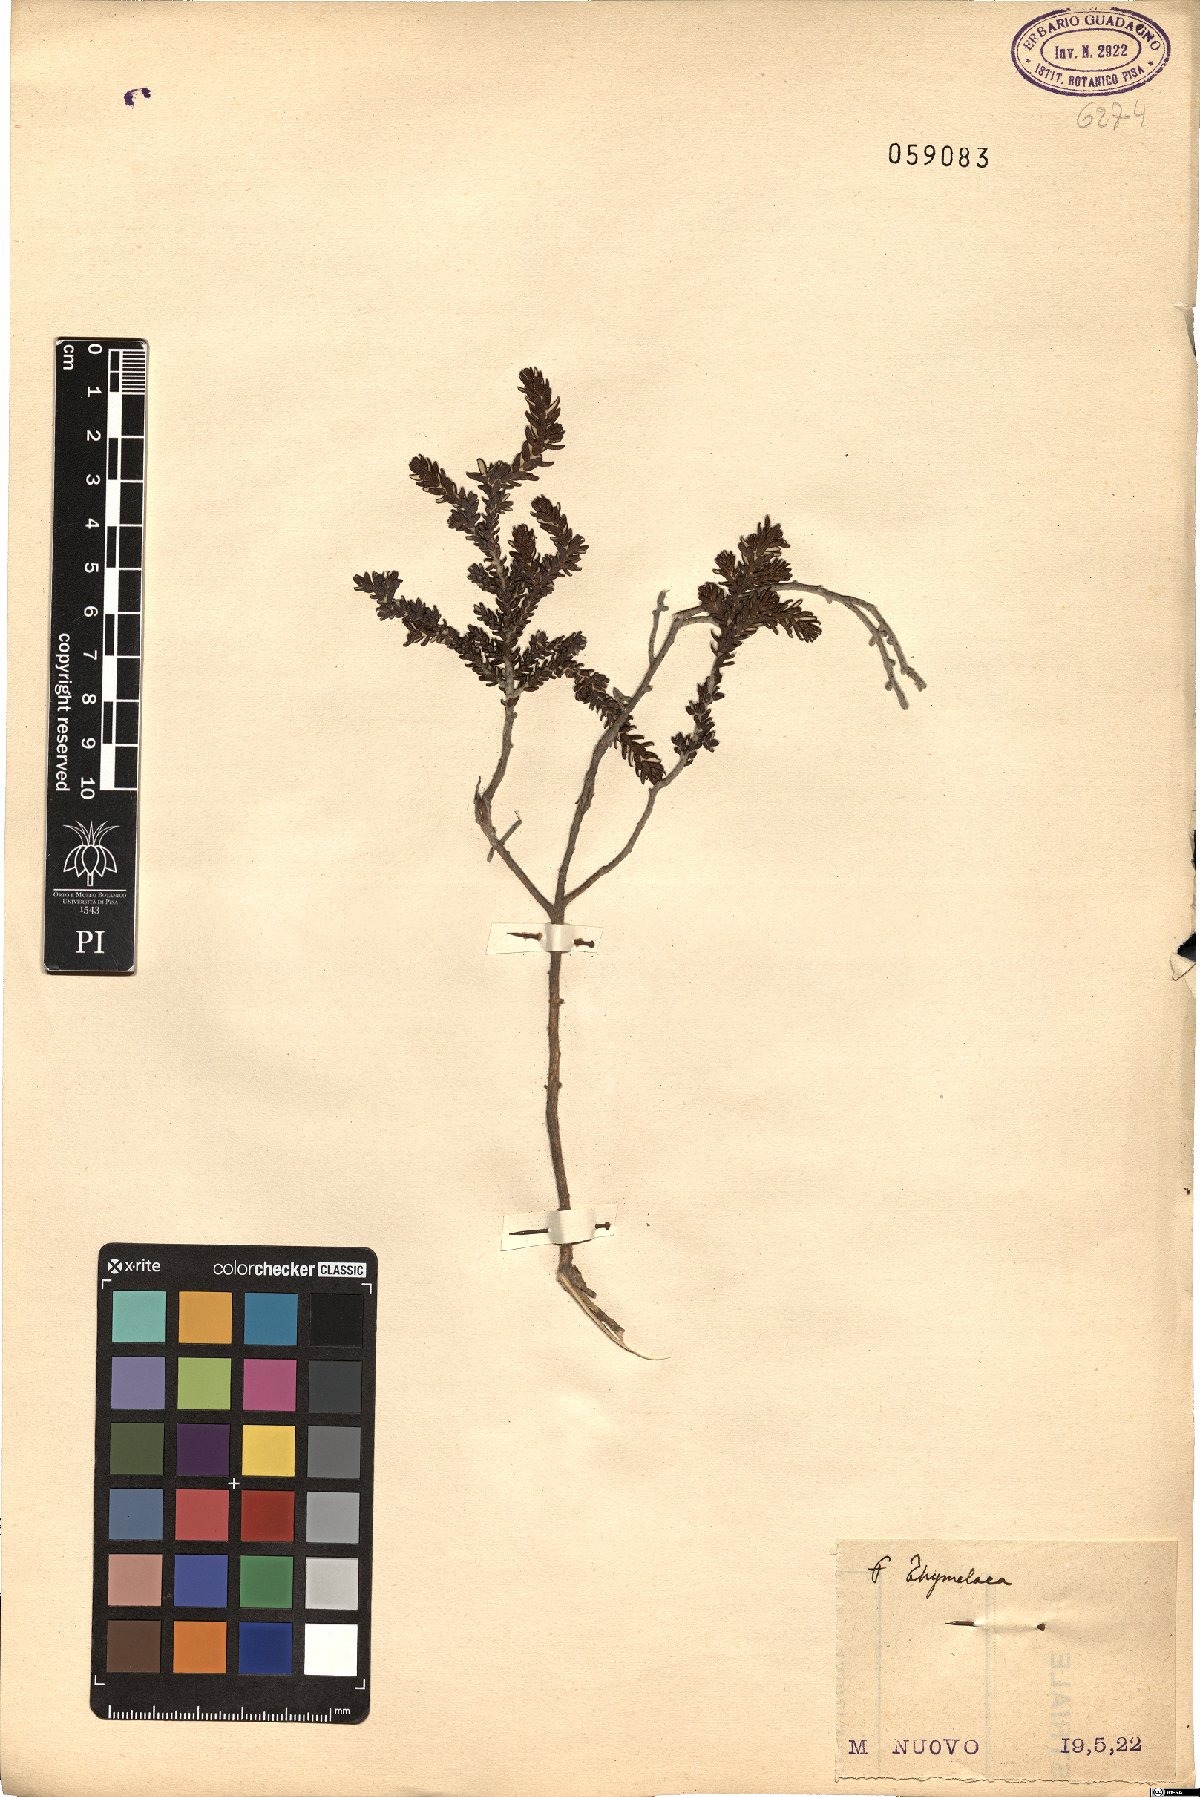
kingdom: Plantae
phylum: Tracheophyta
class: Magnoliopsida
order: Malvales
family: Thymelaeaceae
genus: Thymelaea
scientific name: Thymelaea
